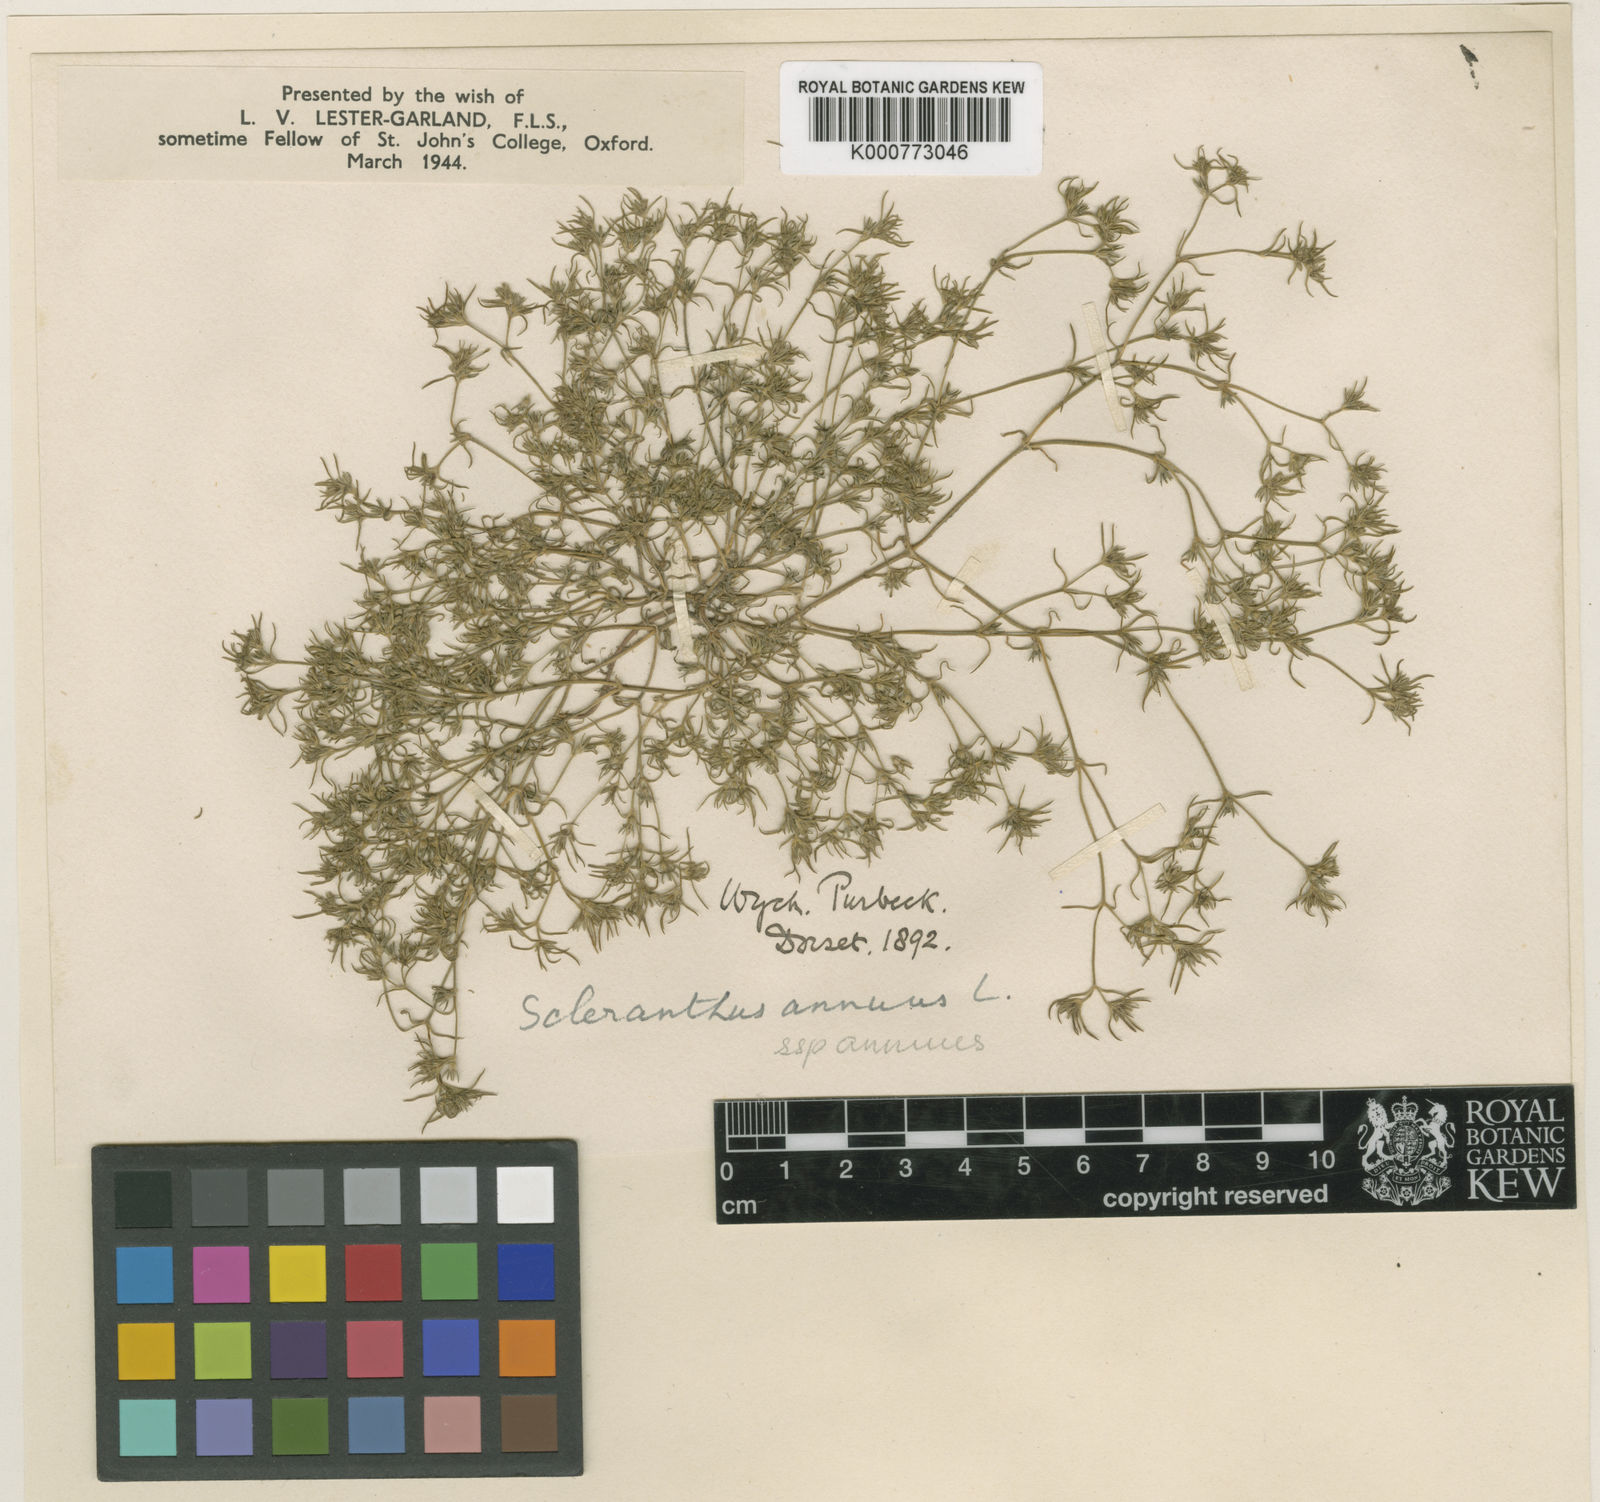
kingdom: Plantae
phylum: Tracheophyta
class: Magnoliopsida
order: Caryophyllales
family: Caryophyllaceae
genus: Scleranthus
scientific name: Scleranthus annuus
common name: Annual knawel
